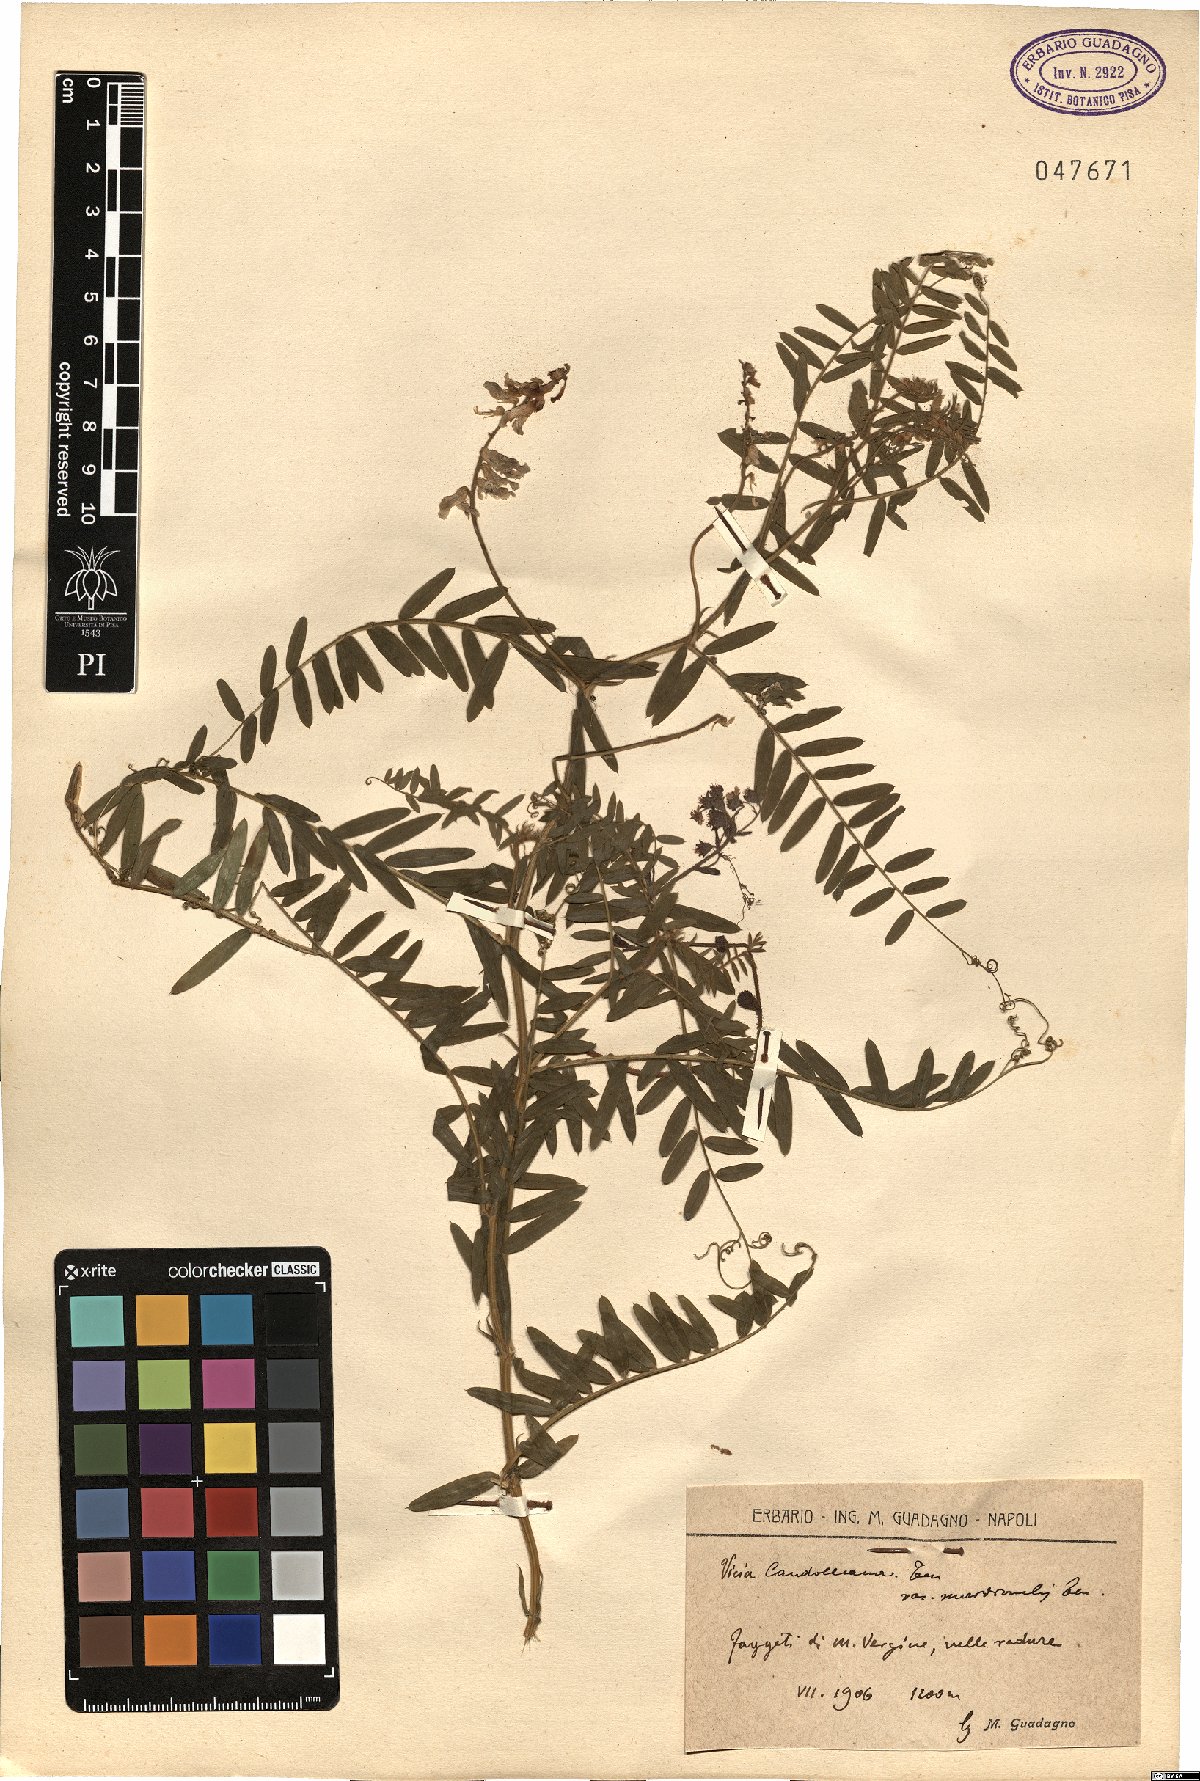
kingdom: Plantae
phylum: Tracheophyta
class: Magnoliopsida
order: Fabales
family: Fabaceae
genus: Vicia
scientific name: Vicia incana
